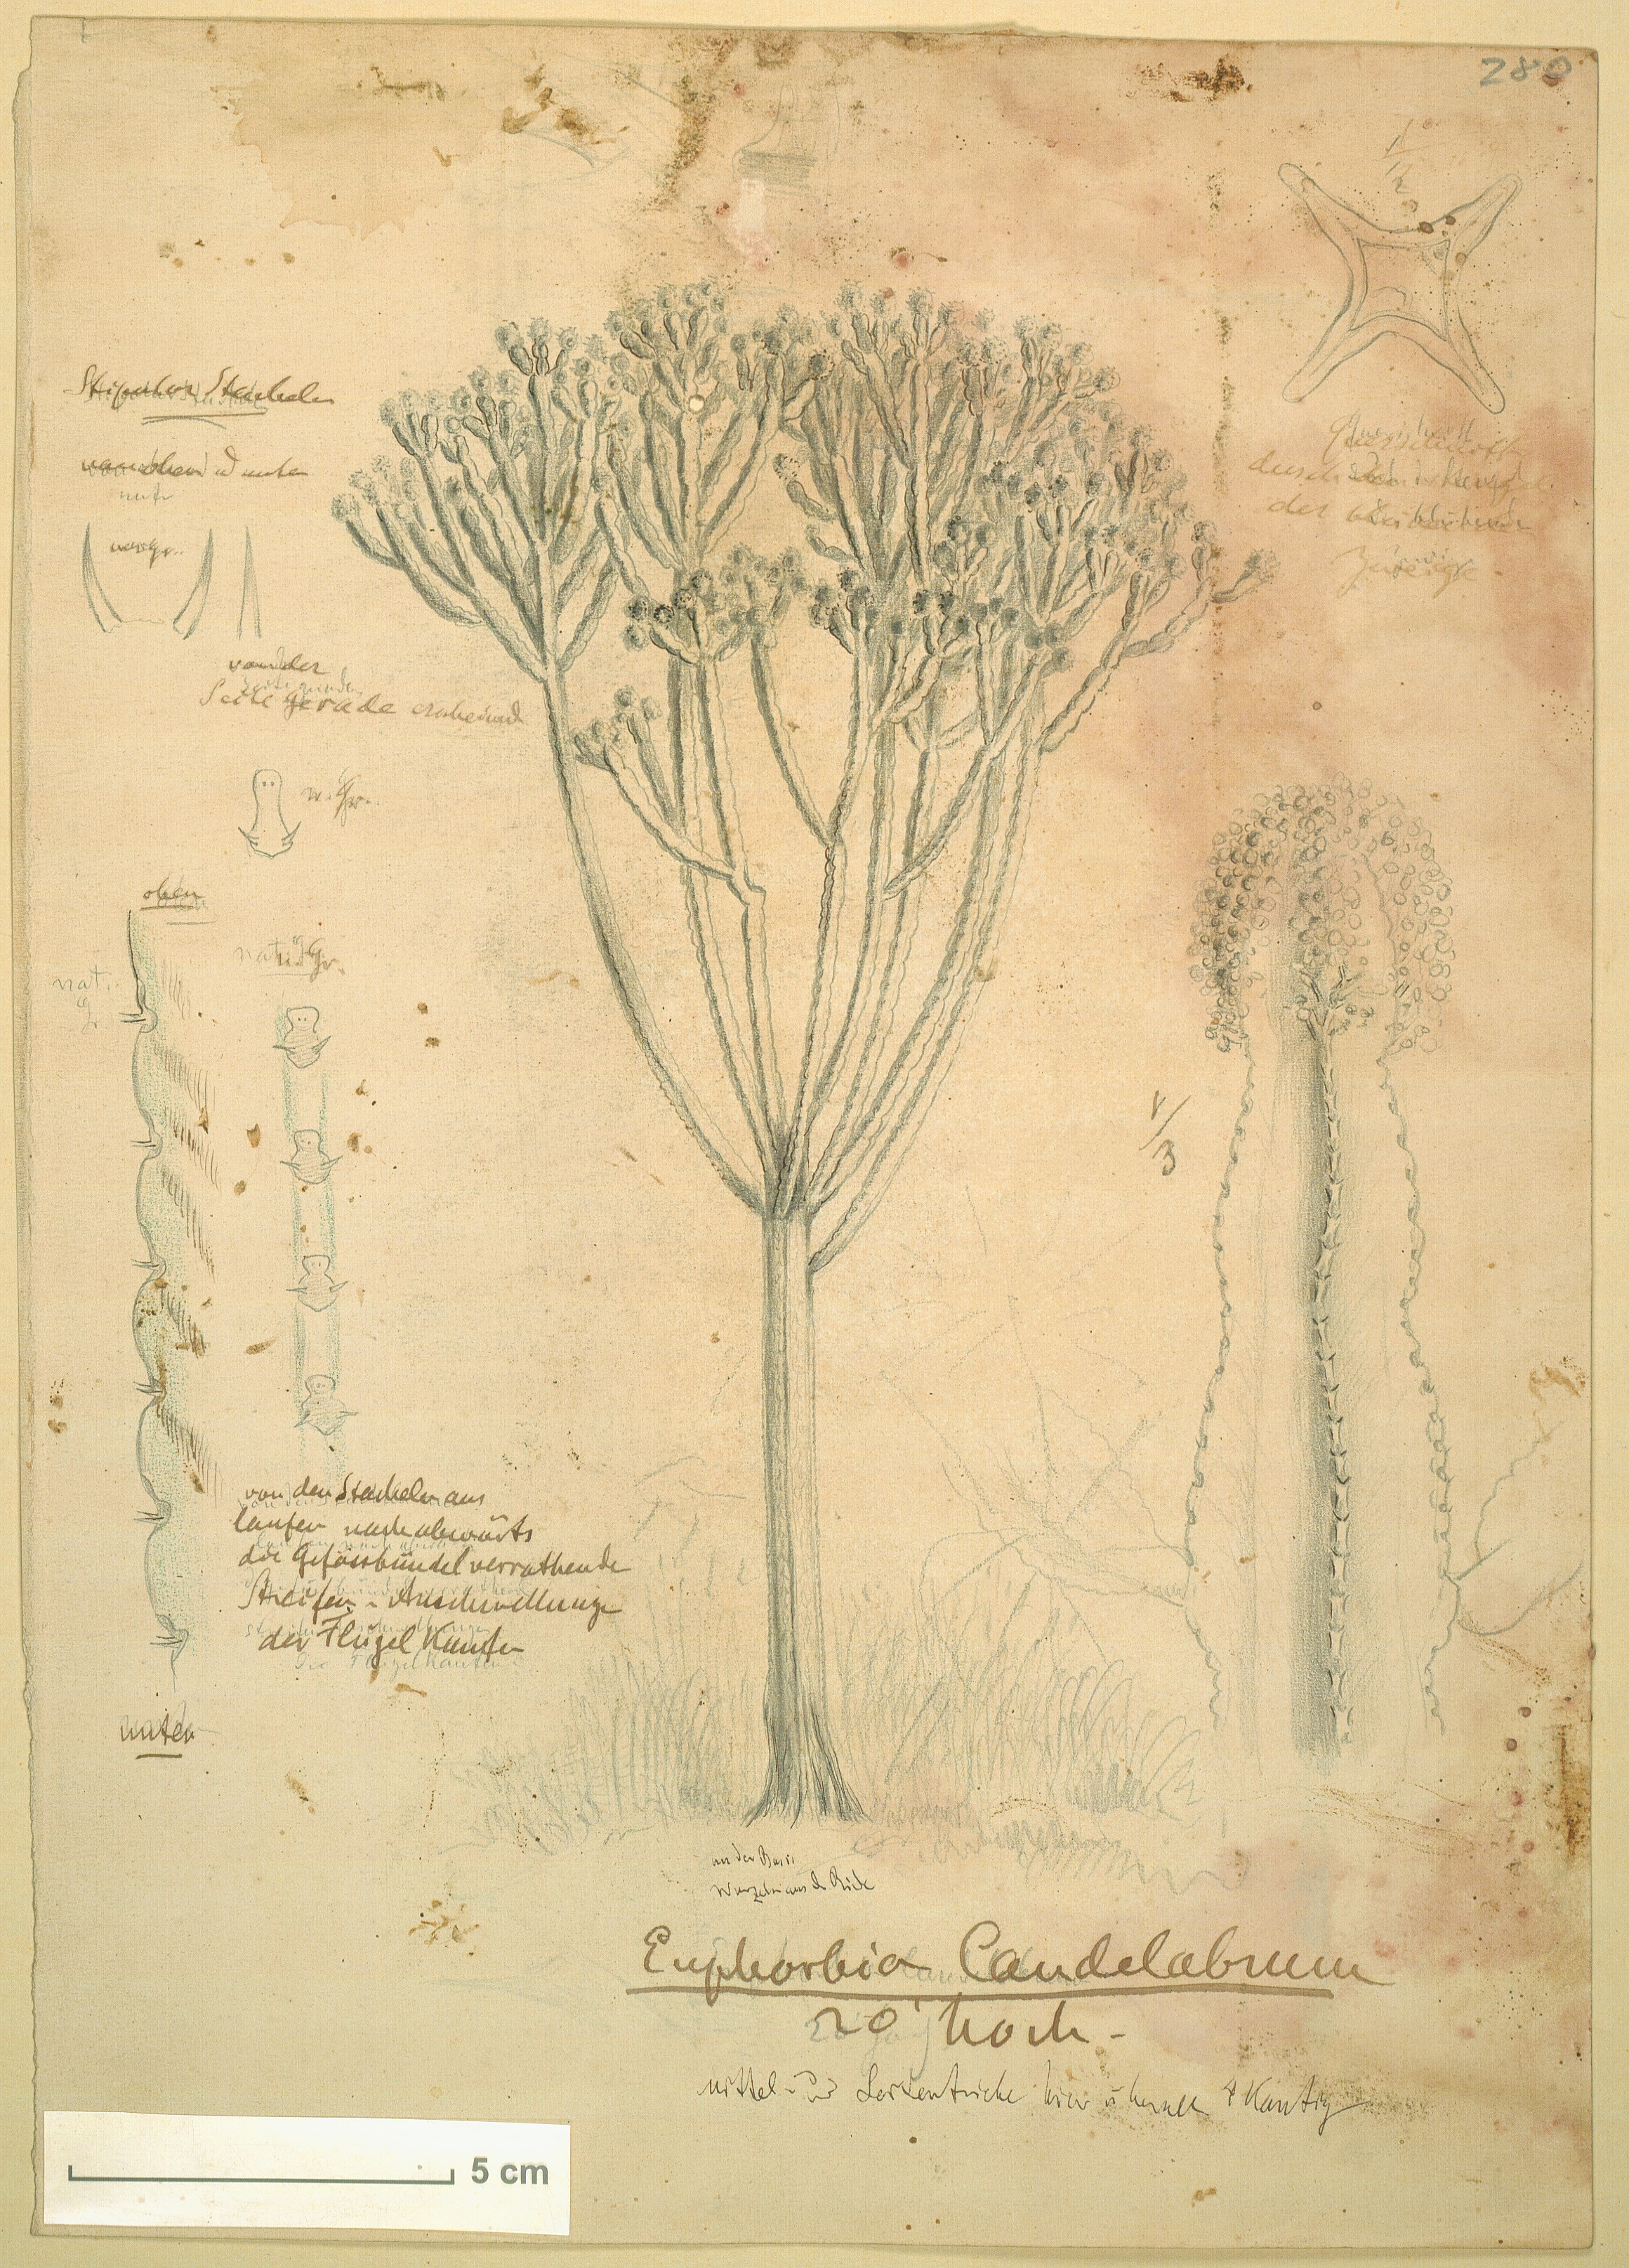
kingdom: Plantae
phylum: Tracheophyta
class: Magnoliopsida
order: Malpighiales
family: Euphorbiaceae
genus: Euphorbia
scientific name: Euphorbia candelabrum
